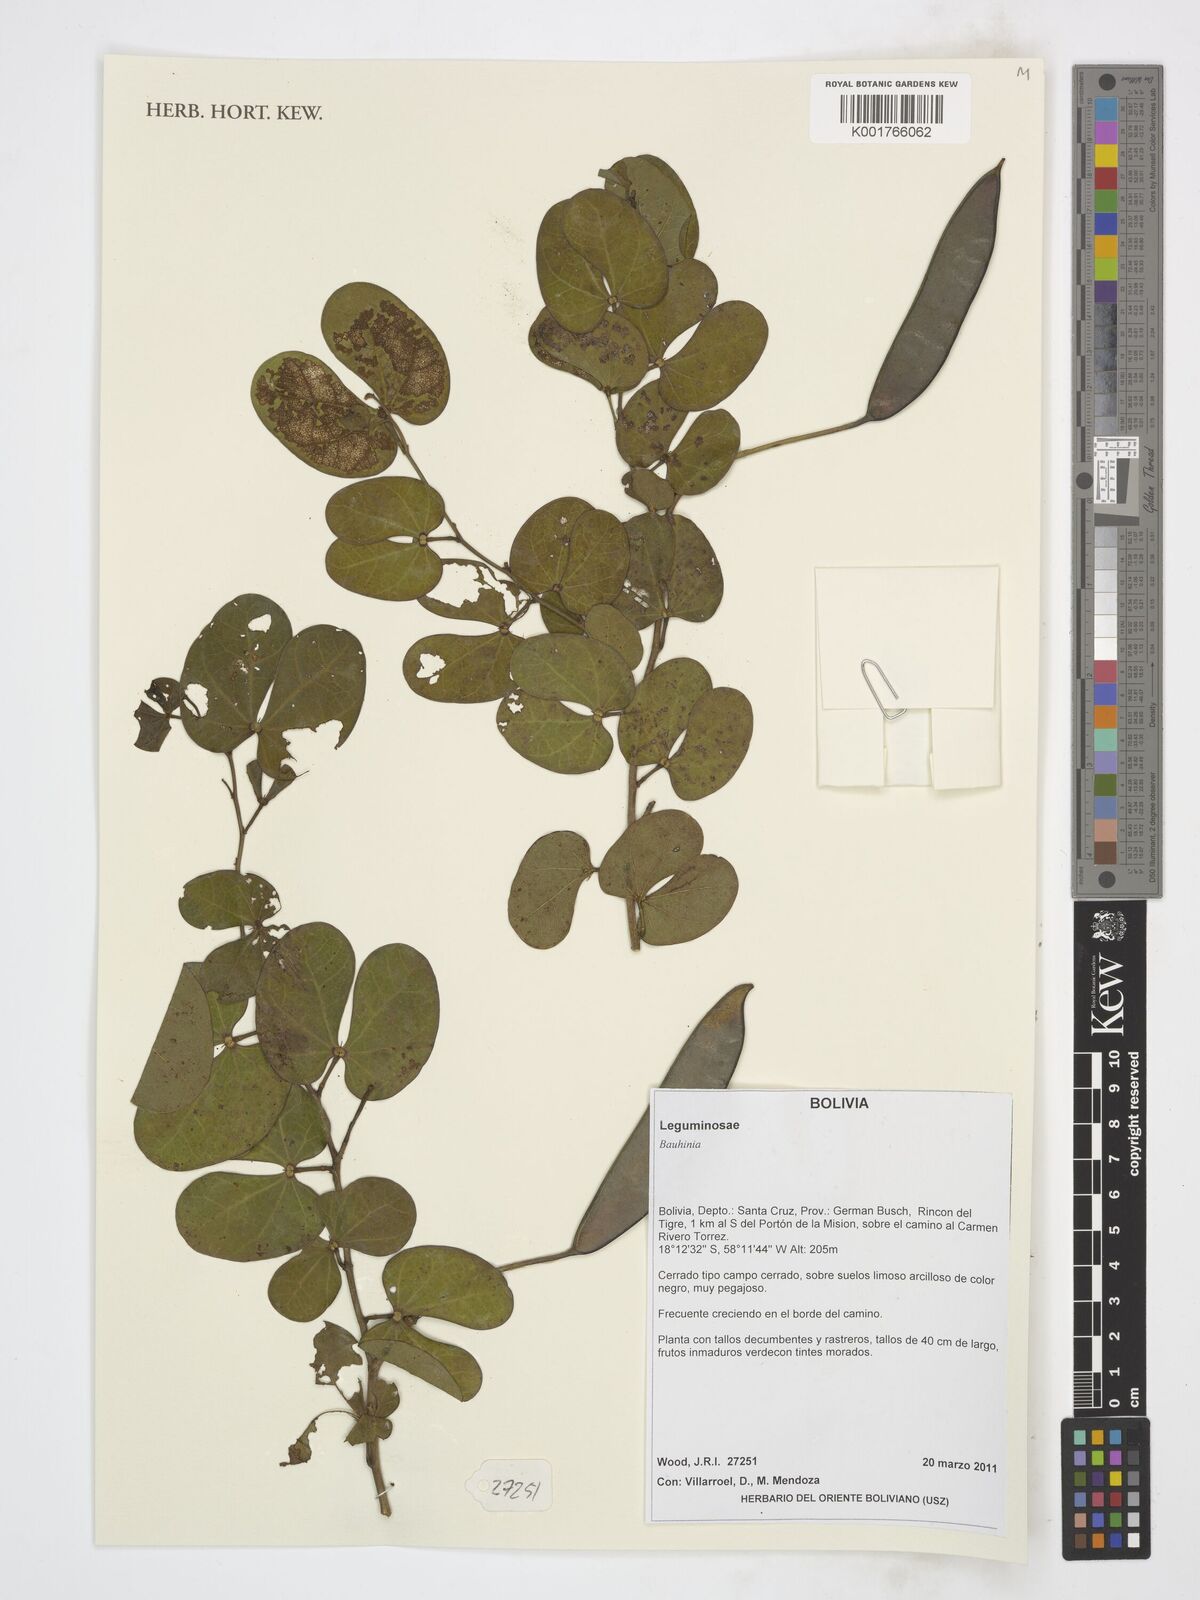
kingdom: Plantae
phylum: Tracheophyta
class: Magnoliopsida
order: Fabales
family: Fabaceae
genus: Bauhinia
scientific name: Bauhinia
